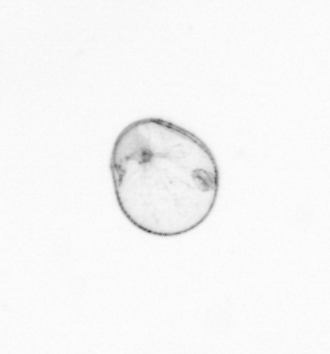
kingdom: Chromista
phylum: Myzozoa
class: Dinophyceae
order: Noctilucales
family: Noctilucaceae
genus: Noctiluca
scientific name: Noctiluca scintillans
